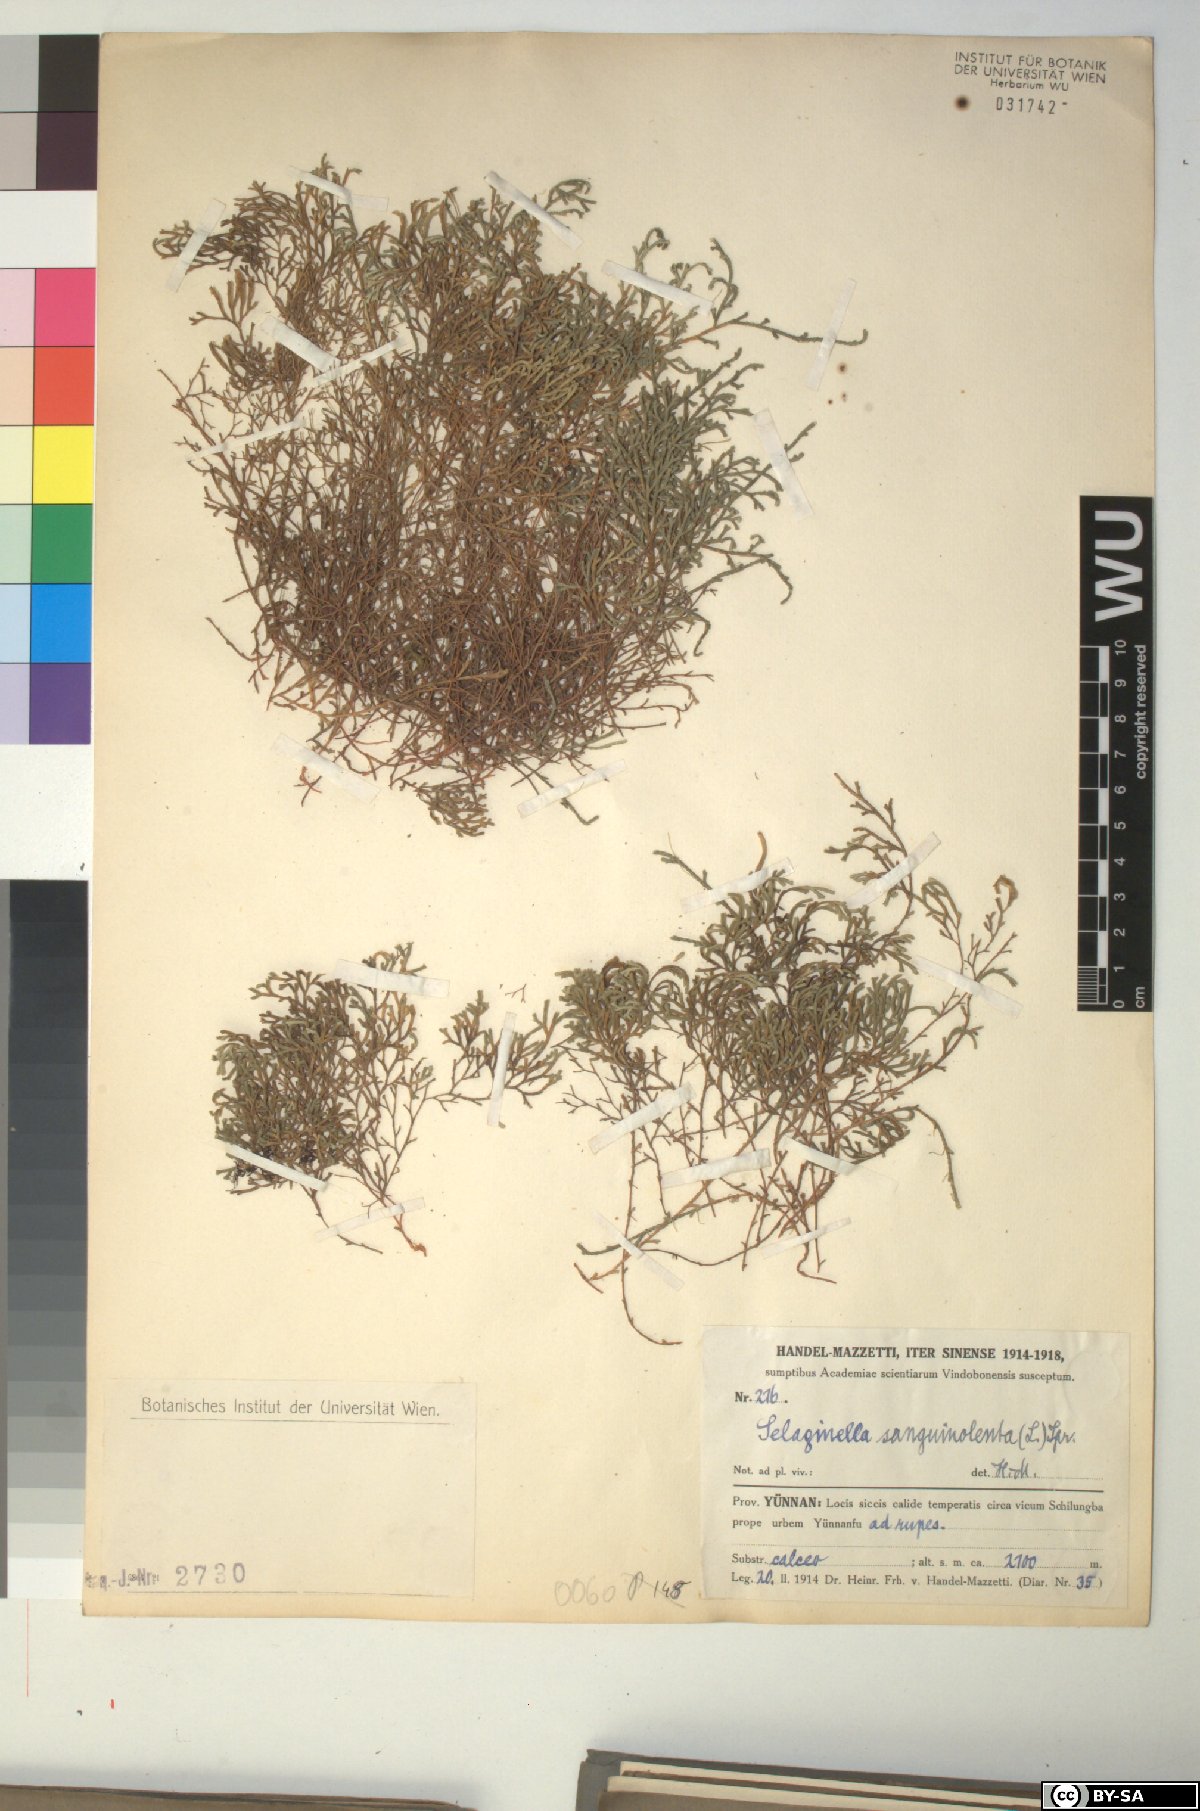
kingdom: Plantae
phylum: Tracheophyta
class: Lycopodiopsida
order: Selaginellales
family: Selaginellaceae
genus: Selaginella
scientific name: Selaginella sanguinolenta
